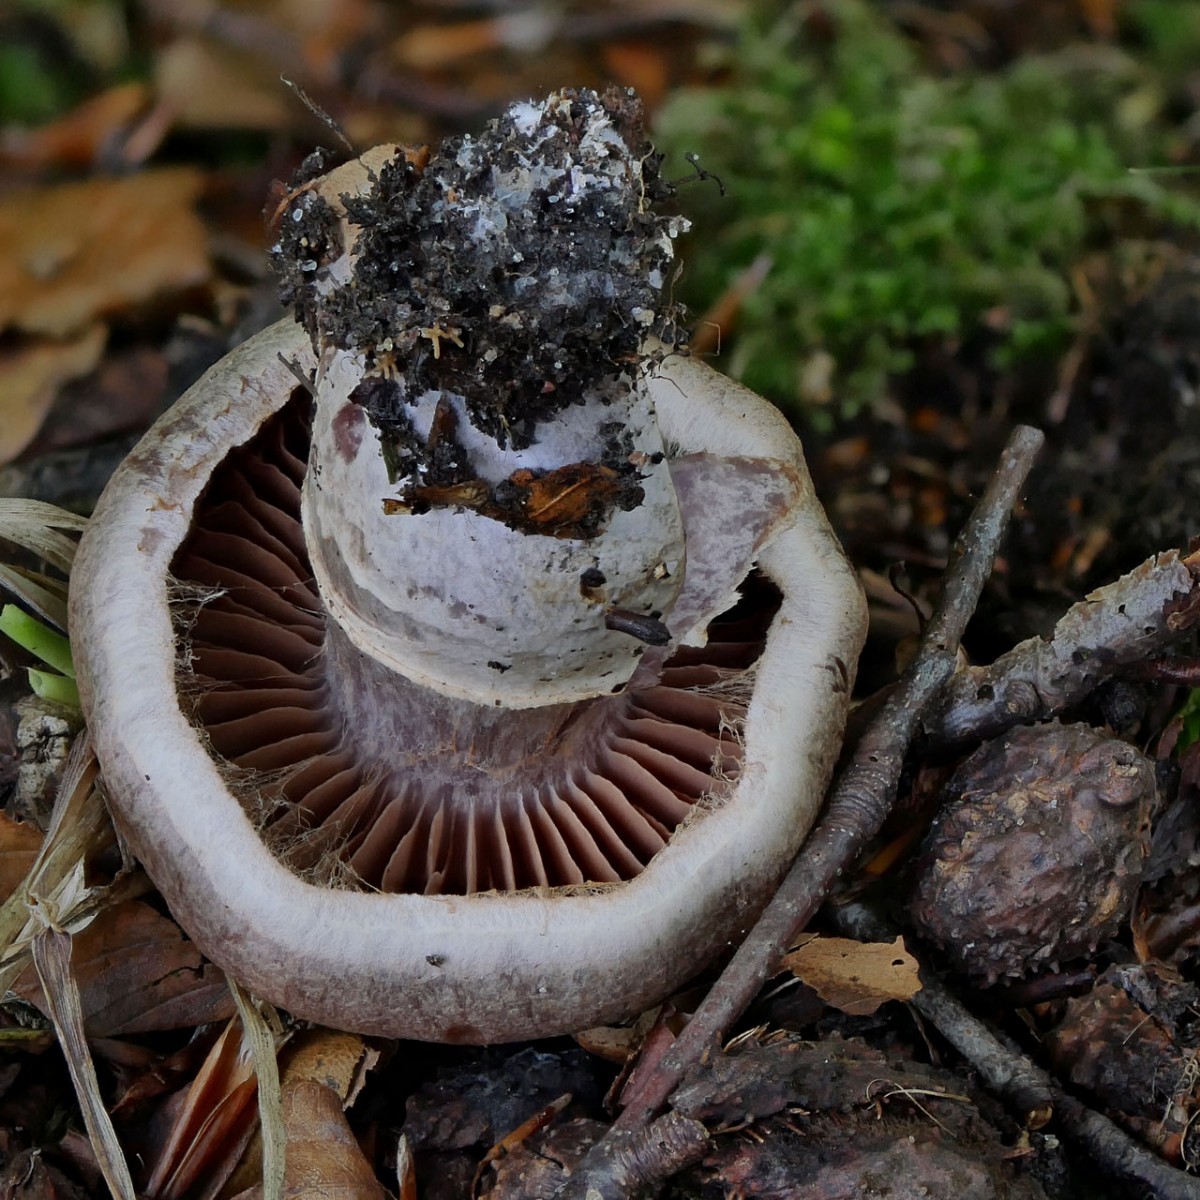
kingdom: Fungi
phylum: Basidiomycota
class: Agaricomycetes
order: Agaricales
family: Cortinariaceae
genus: Cortinarius
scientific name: Cortinarius torvus
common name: champignonagtig slørhat
